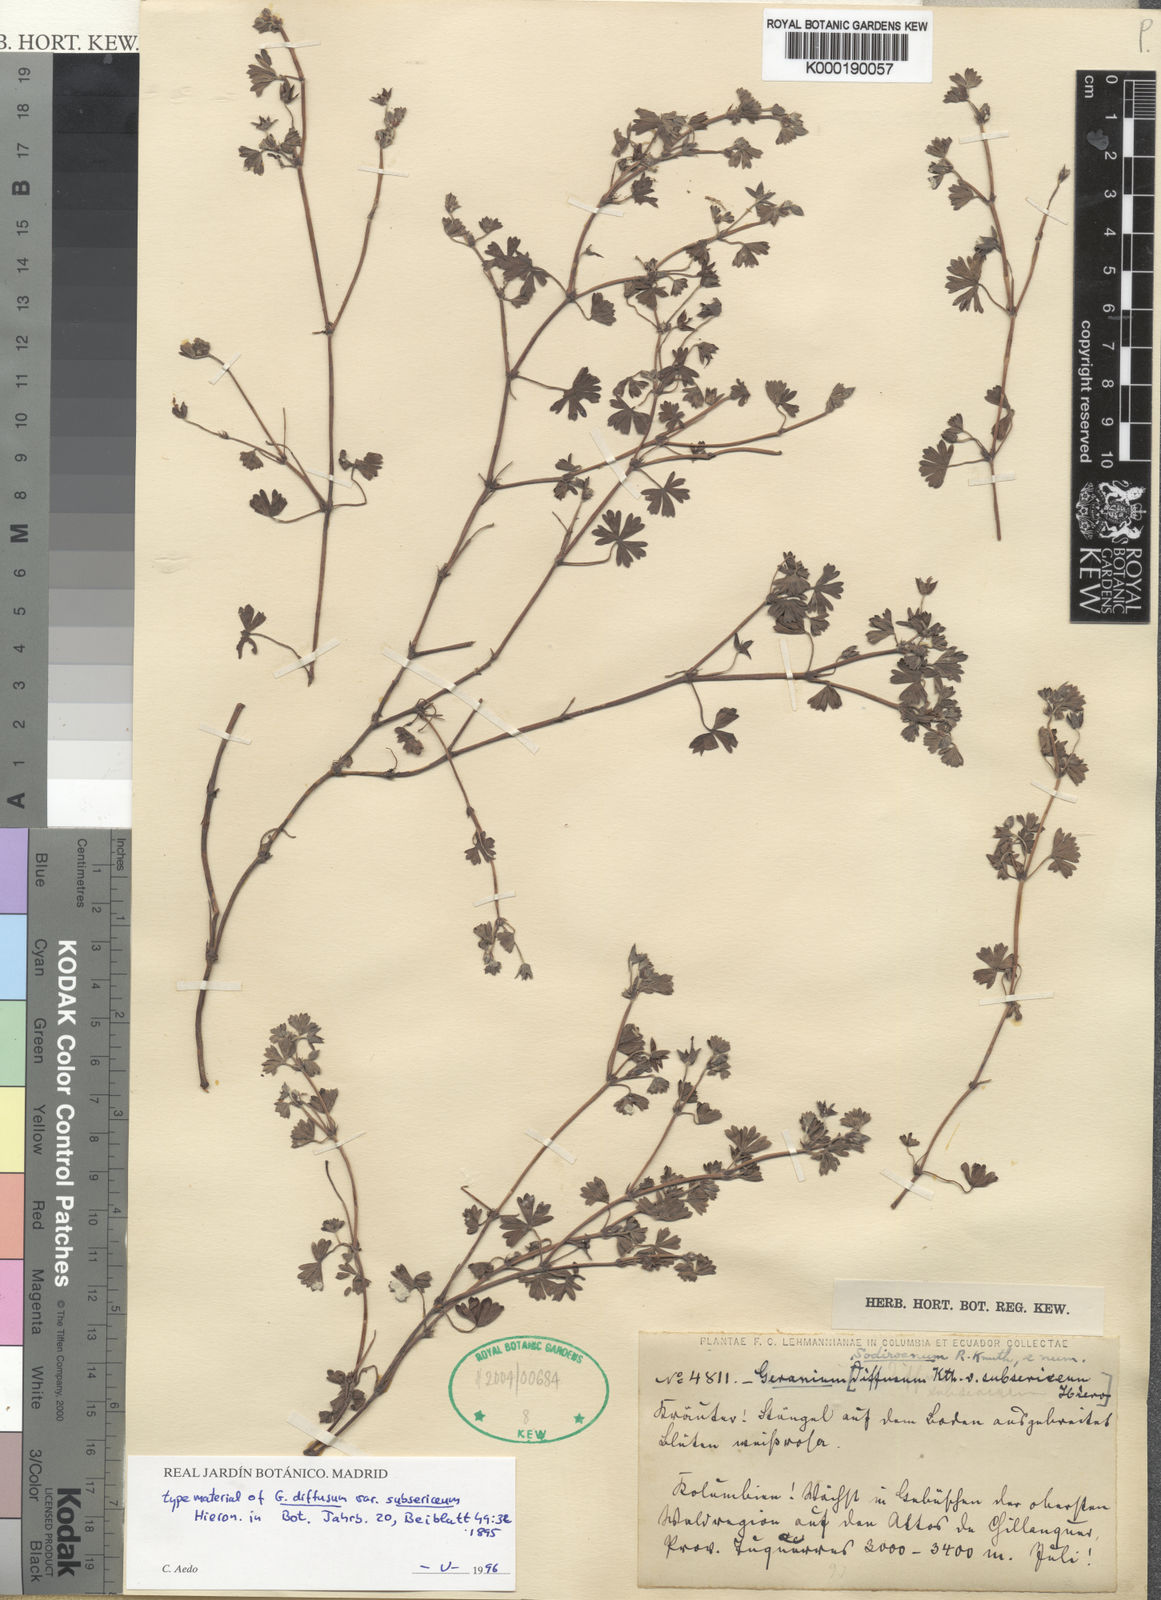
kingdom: Plantae
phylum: Tracheophyta
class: Magnoliopsida
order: Geraniales
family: Geraniaceae
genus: Geranium
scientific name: Geranium diffusum
